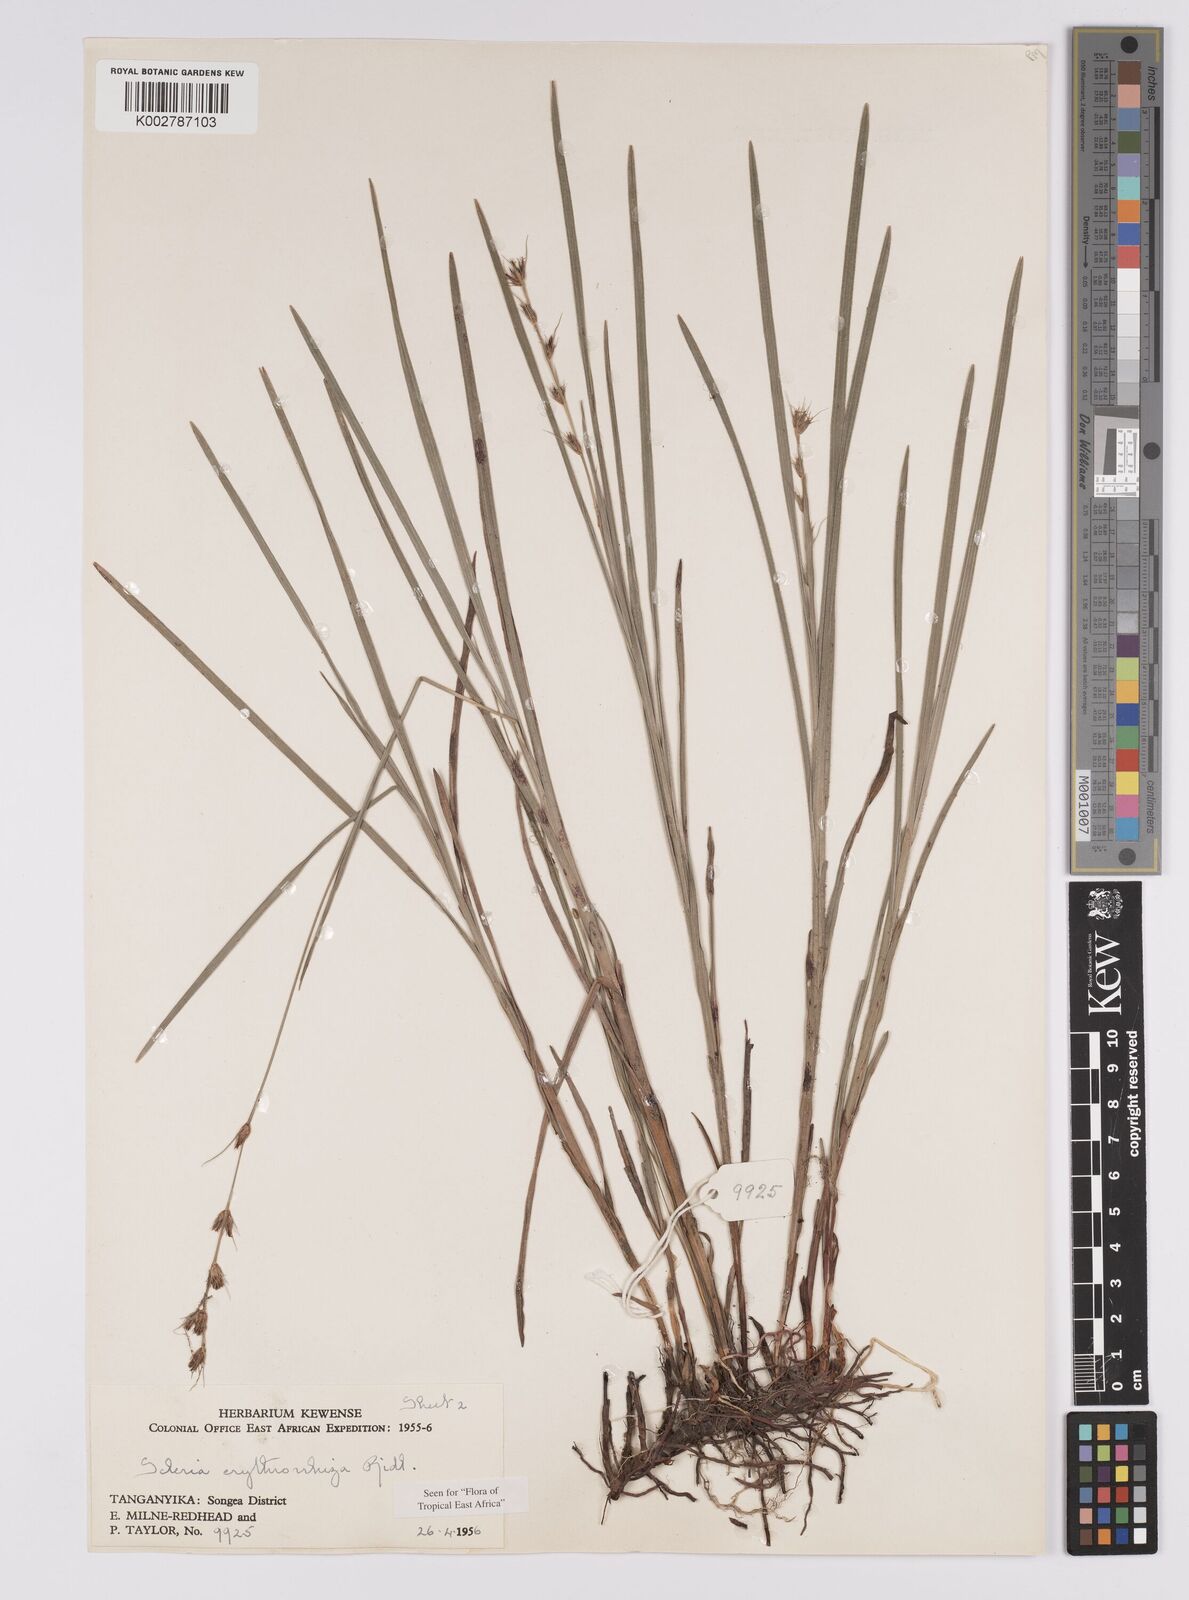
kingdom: Plantae
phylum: Tracheophyta
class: Liliopsida
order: Poales
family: Cyperaceae
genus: Scleria
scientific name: Scleria erythrorrhiza
